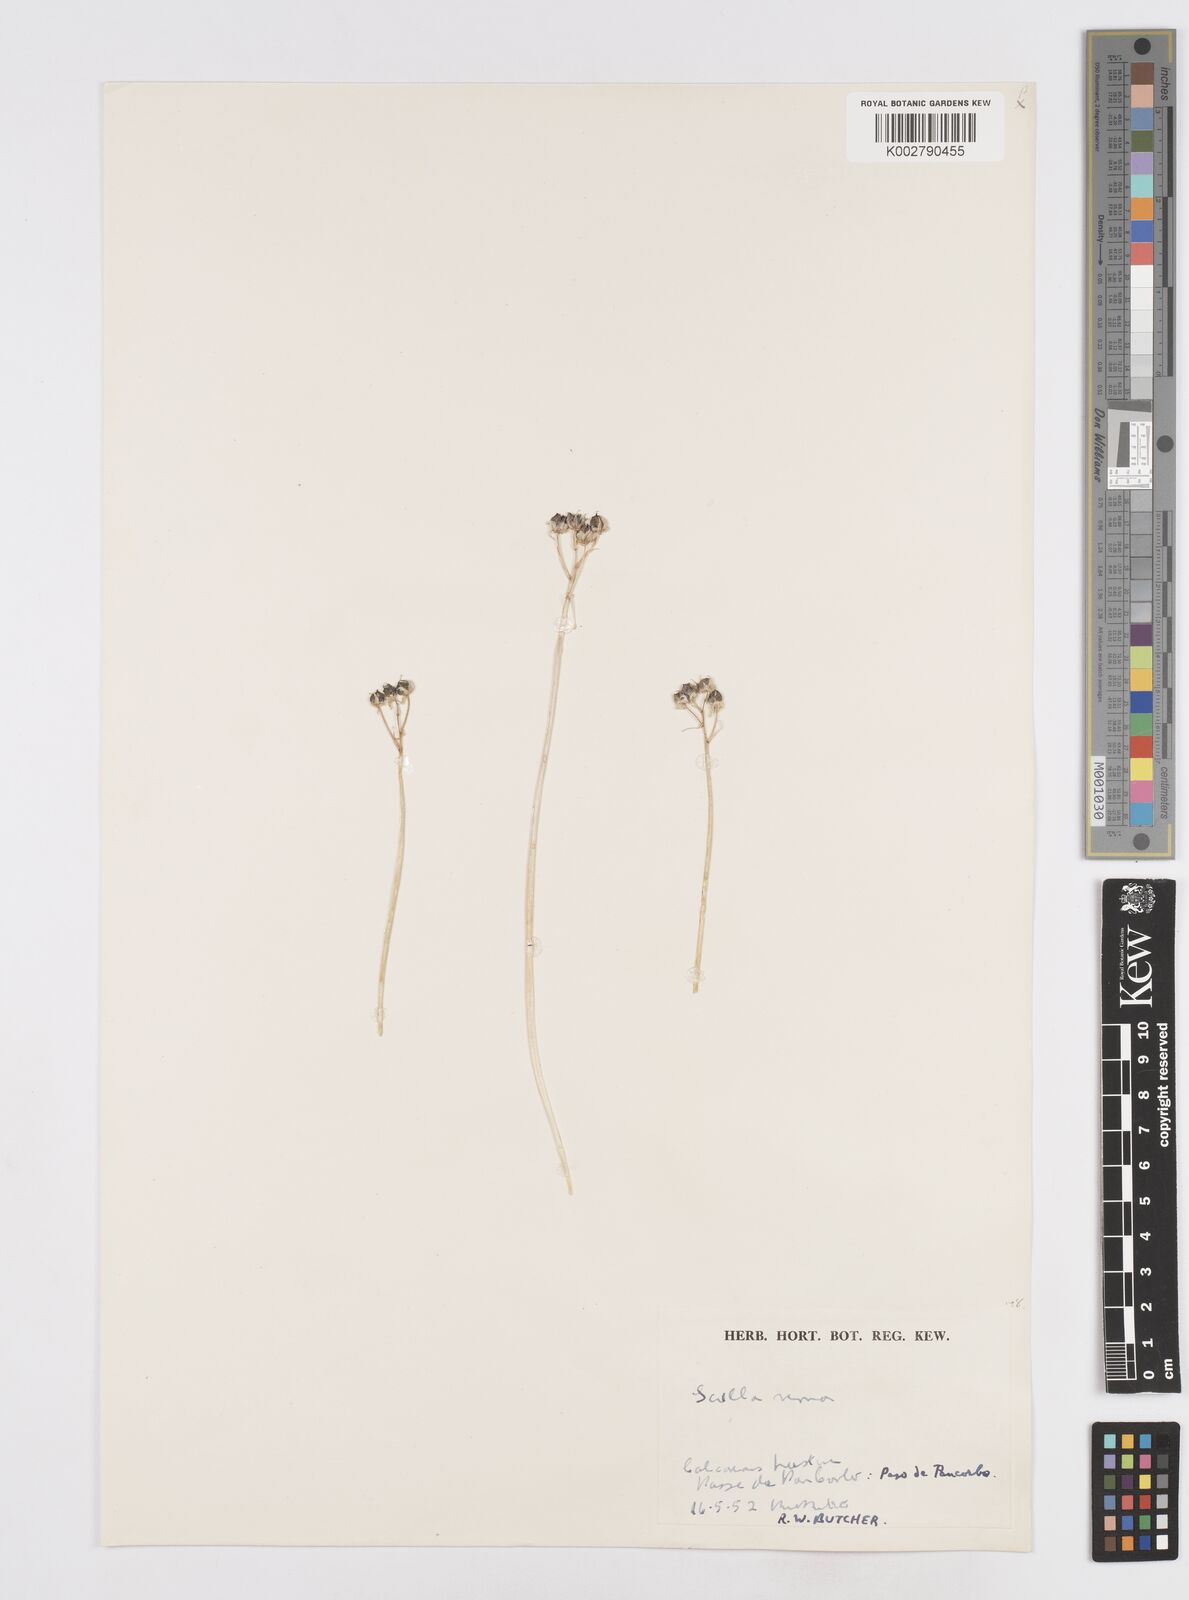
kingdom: Plantae
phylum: Tracheophyta
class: Liliopsida
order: Asparagales
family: Asparagaceae
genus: Scilla
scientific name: Scilla verna
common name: Spring squill
